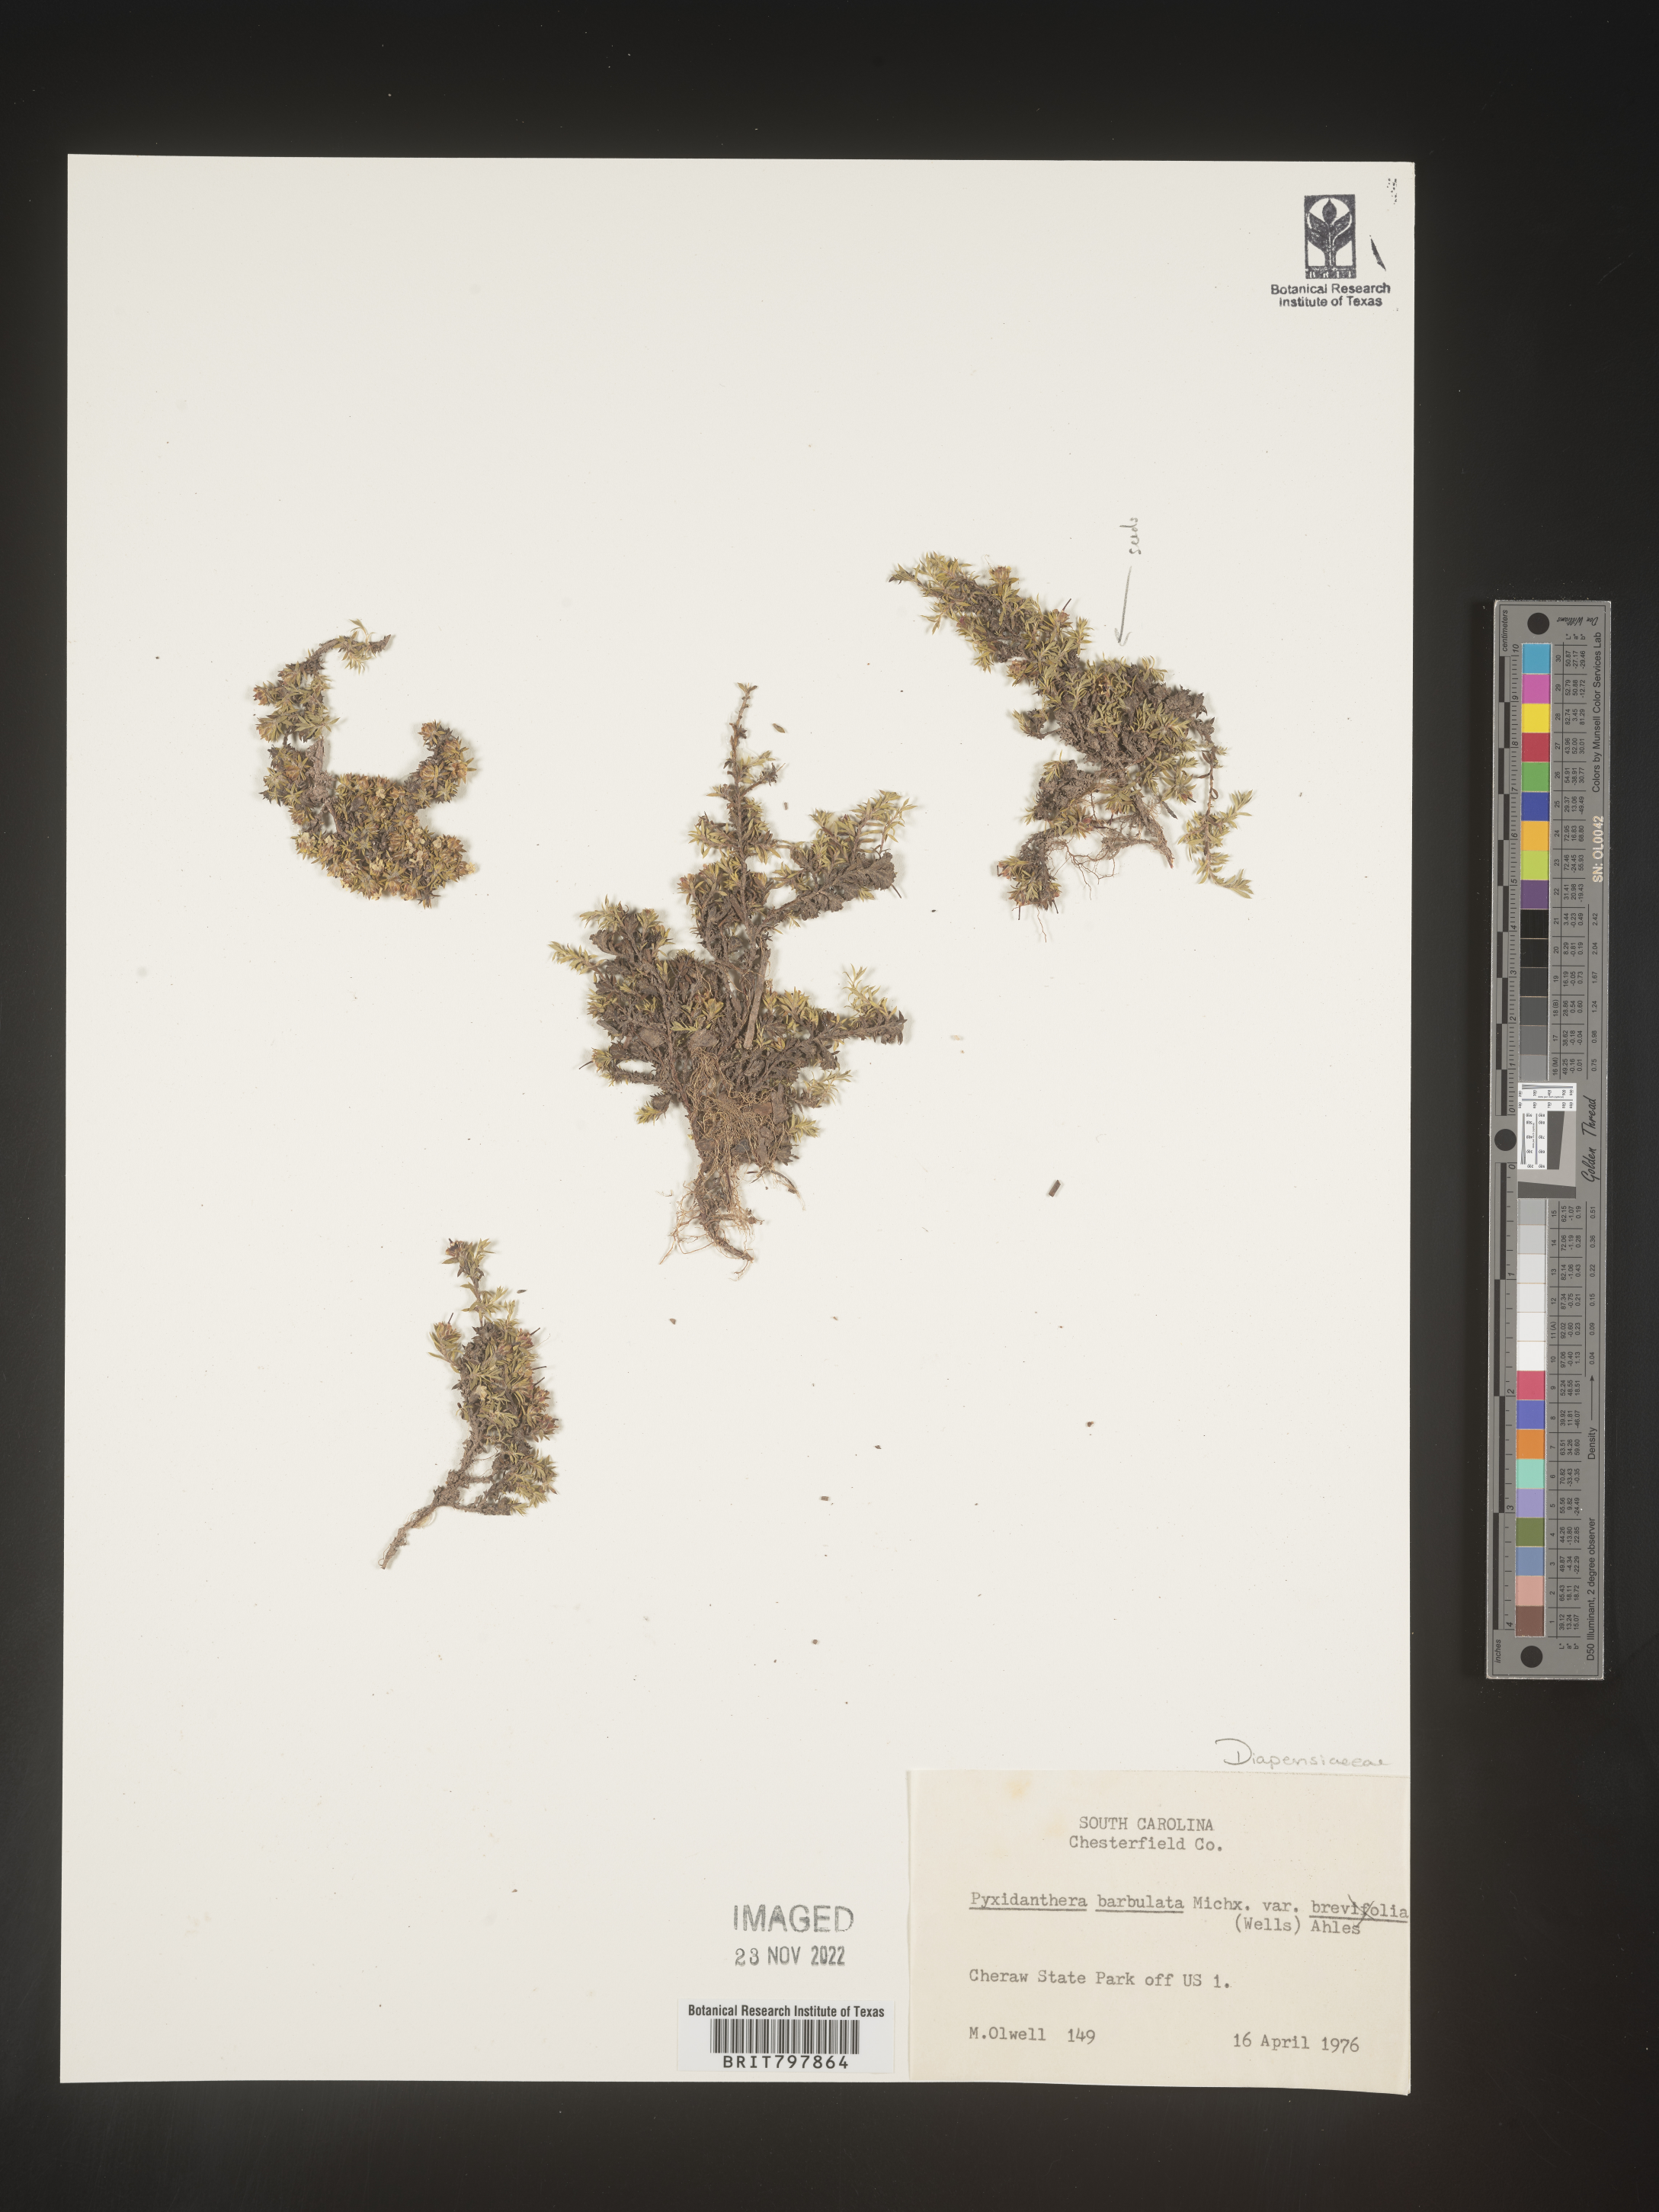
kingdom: Plantae
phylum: Tracheophyta
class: Magnoliopsida
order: Ericales
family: Diapensiaceae
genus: Pyxidanthera
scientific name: Pyxidanthera barbulata
